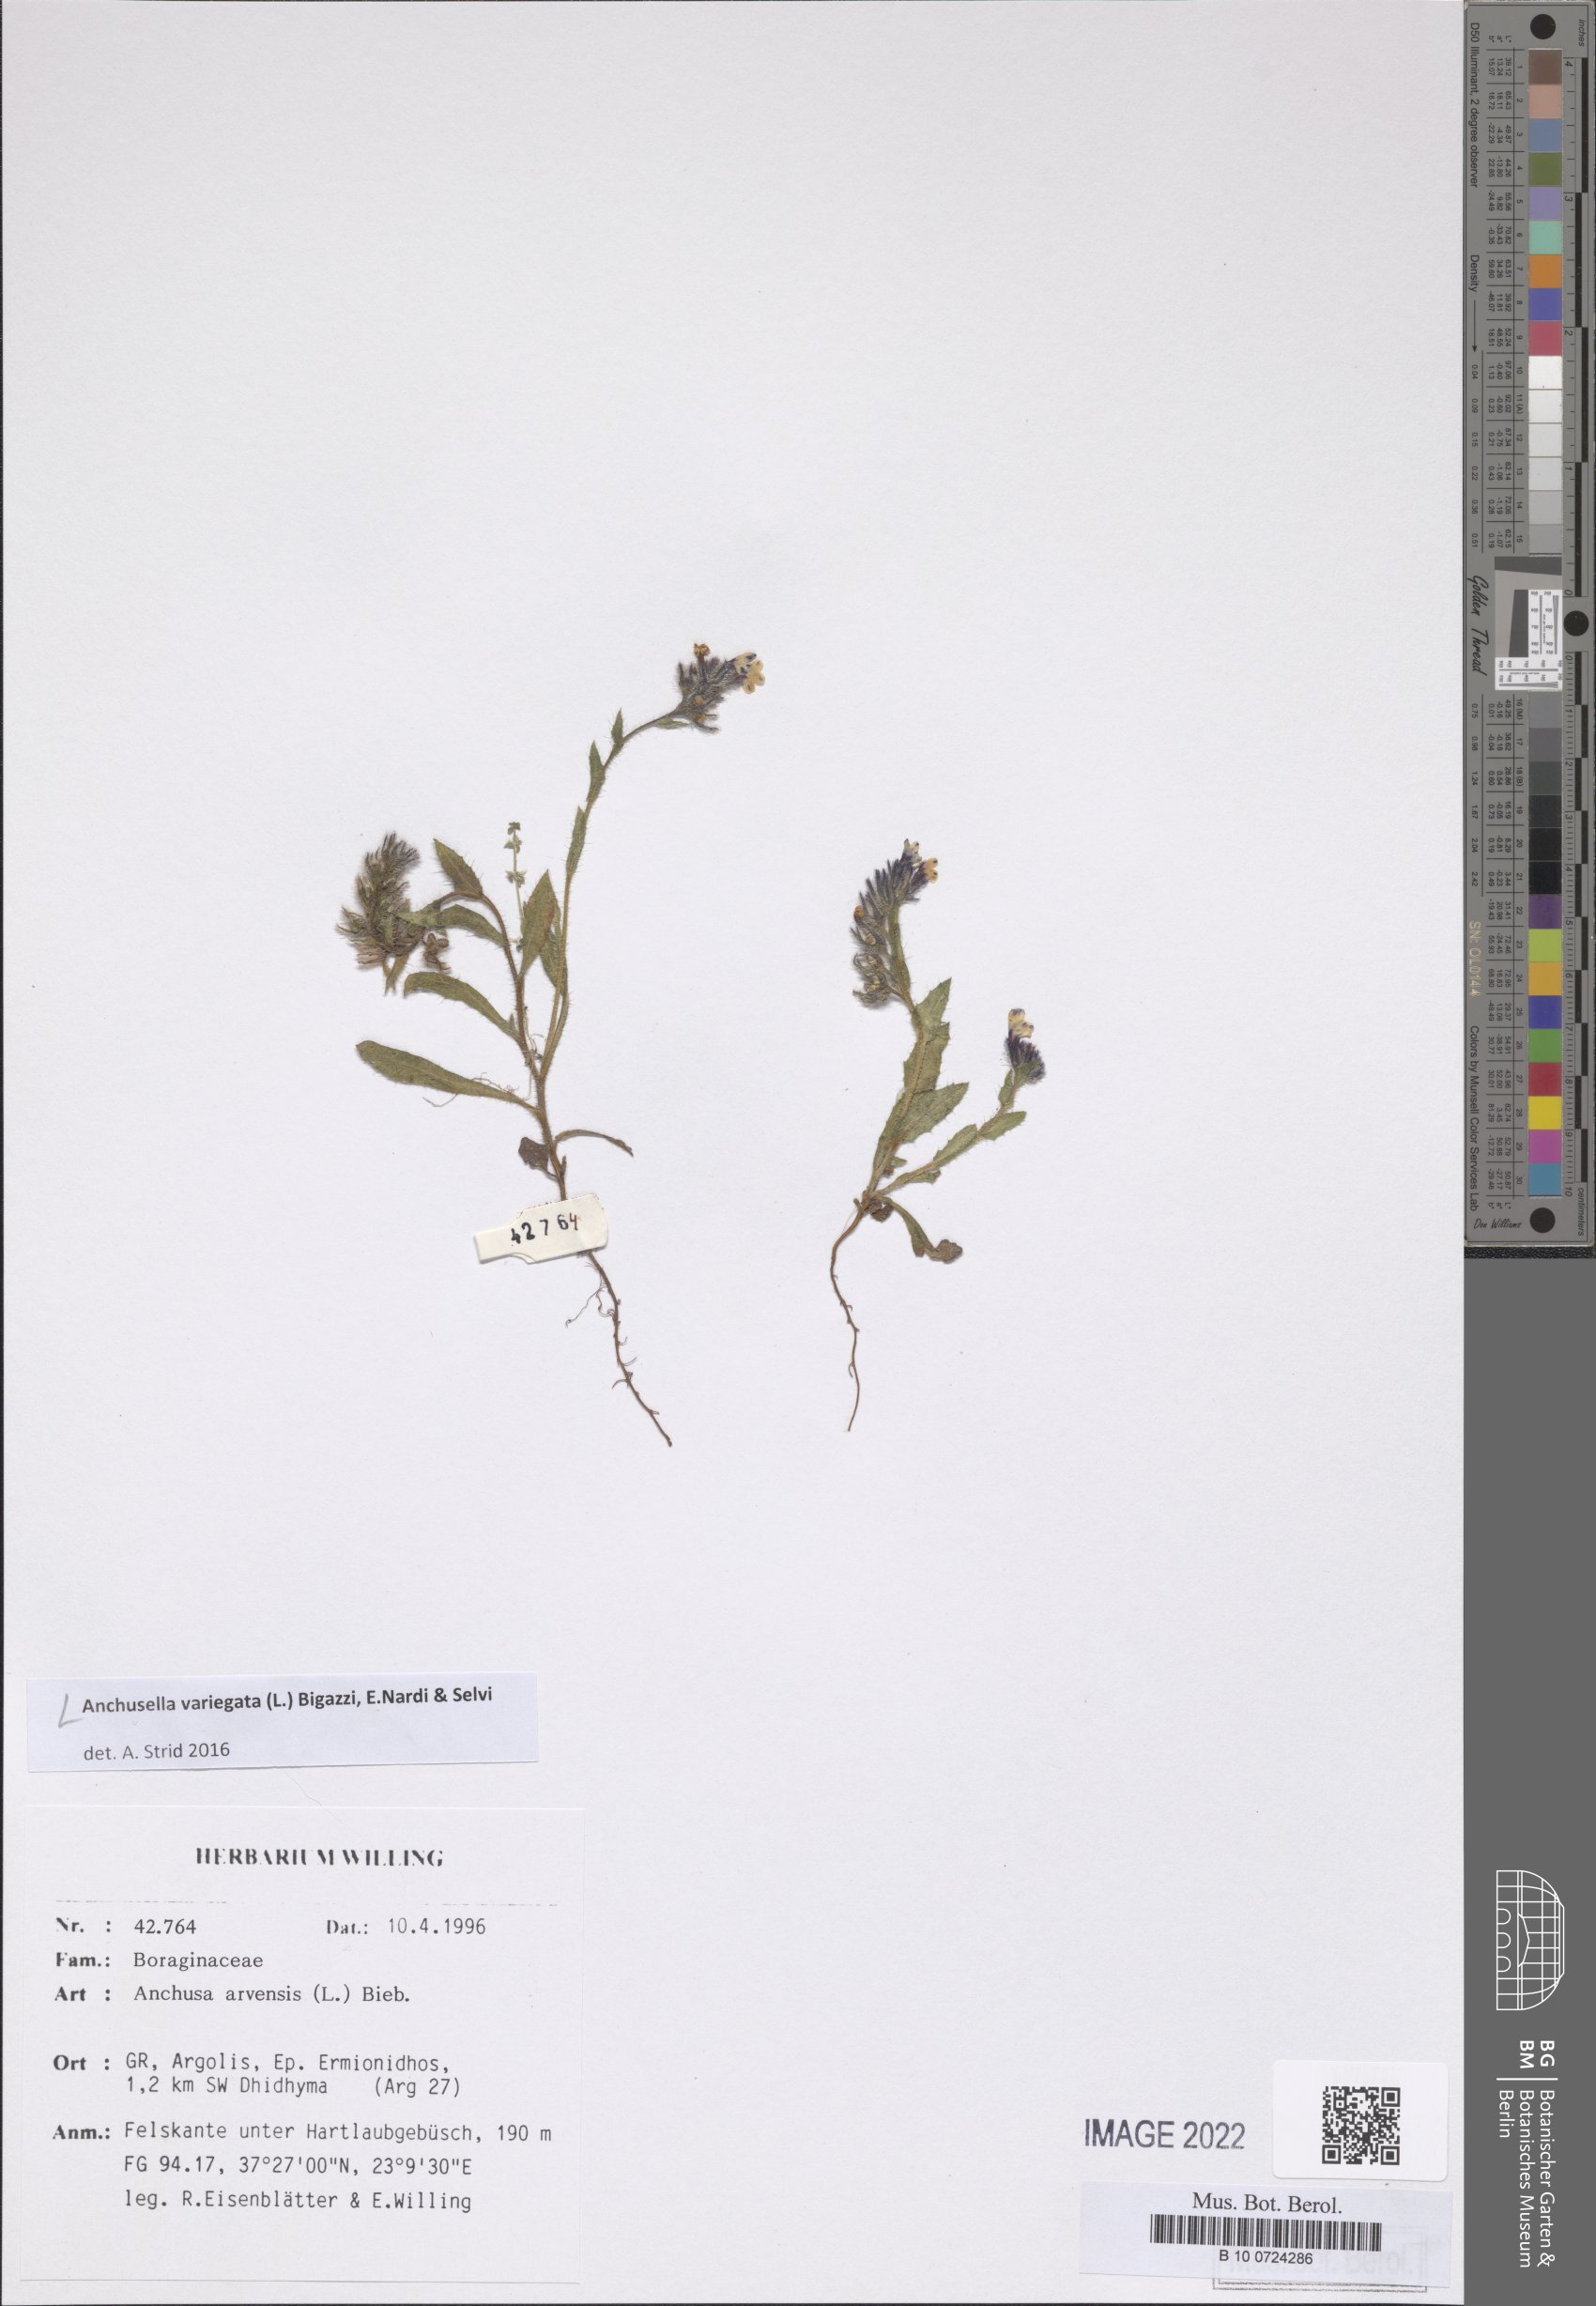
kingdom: Plantae
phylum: Tracheophyta
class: Magnoliopsida
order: Boraginales
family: Boraginaceae
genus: Anchusella
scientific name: Anchusella variegata
